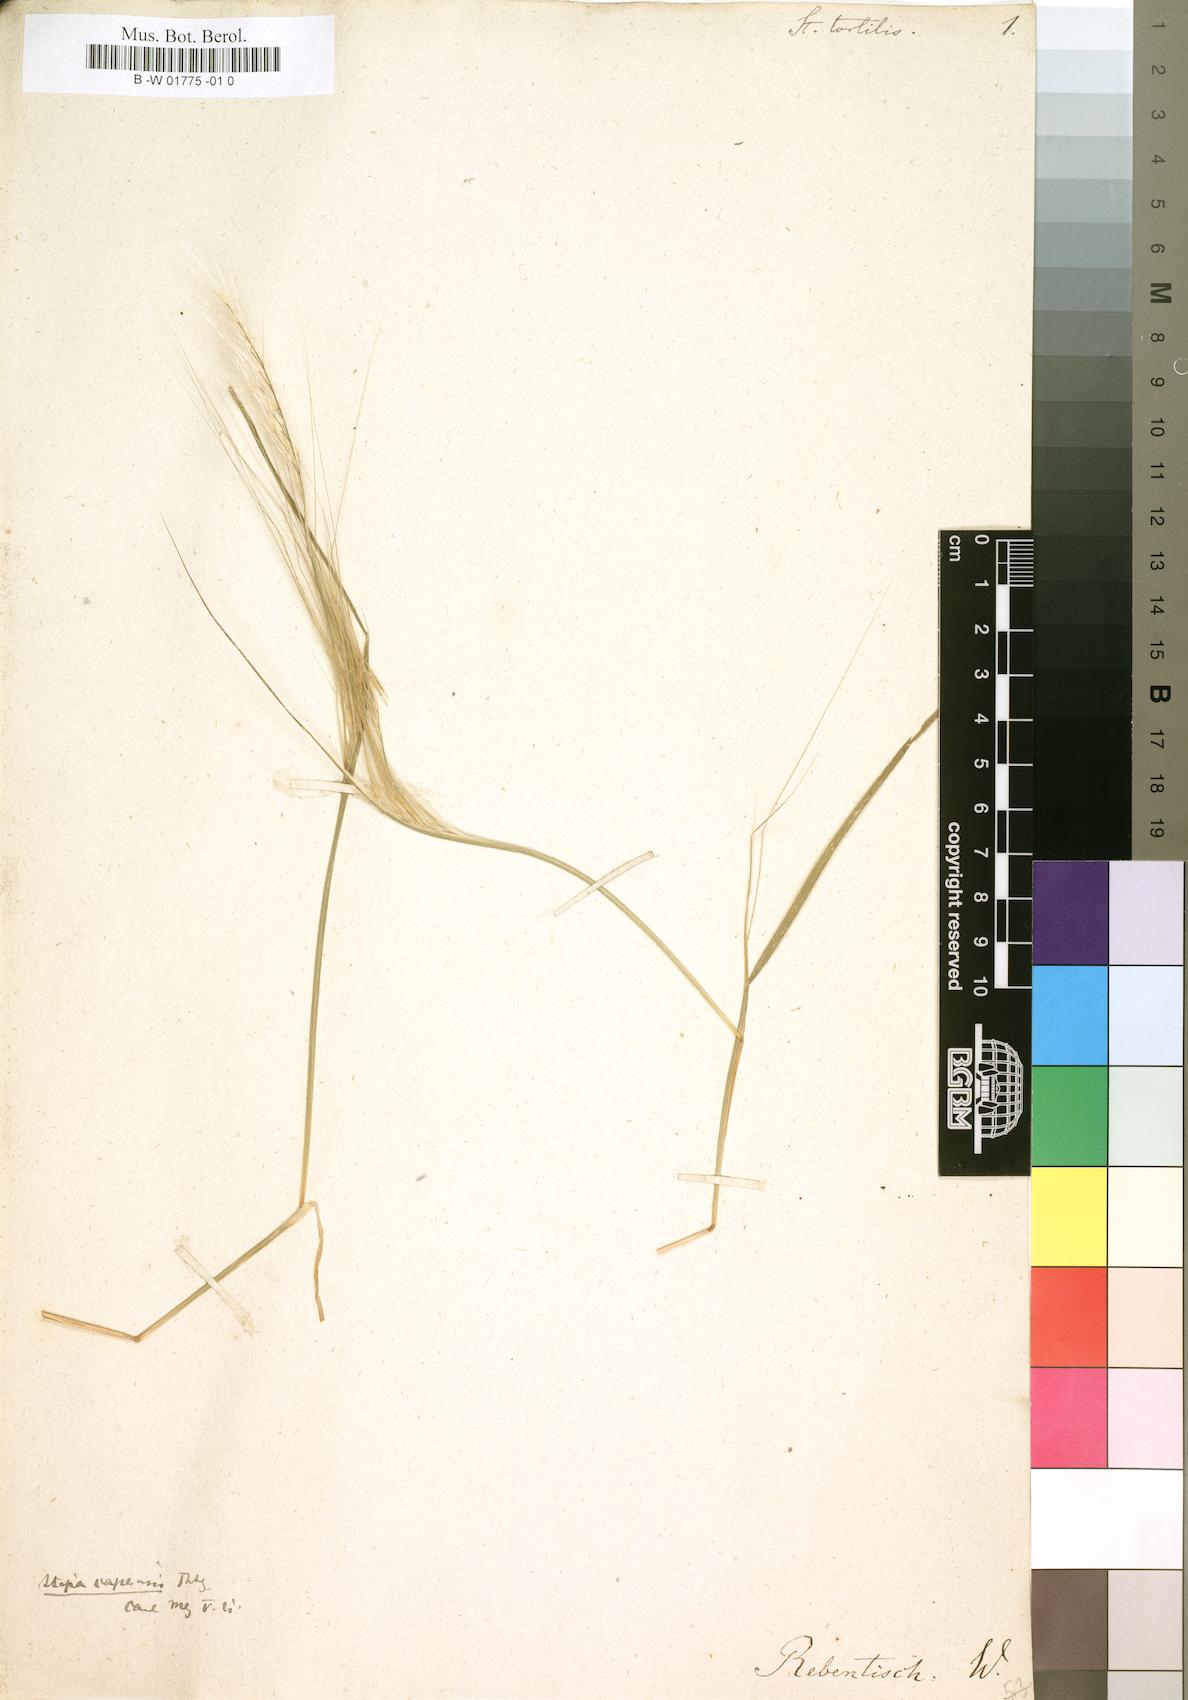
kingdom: Plantae
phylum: Tracheophyta
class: Liliopsida
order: Poales
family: Poaceae
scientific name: Poaceae
